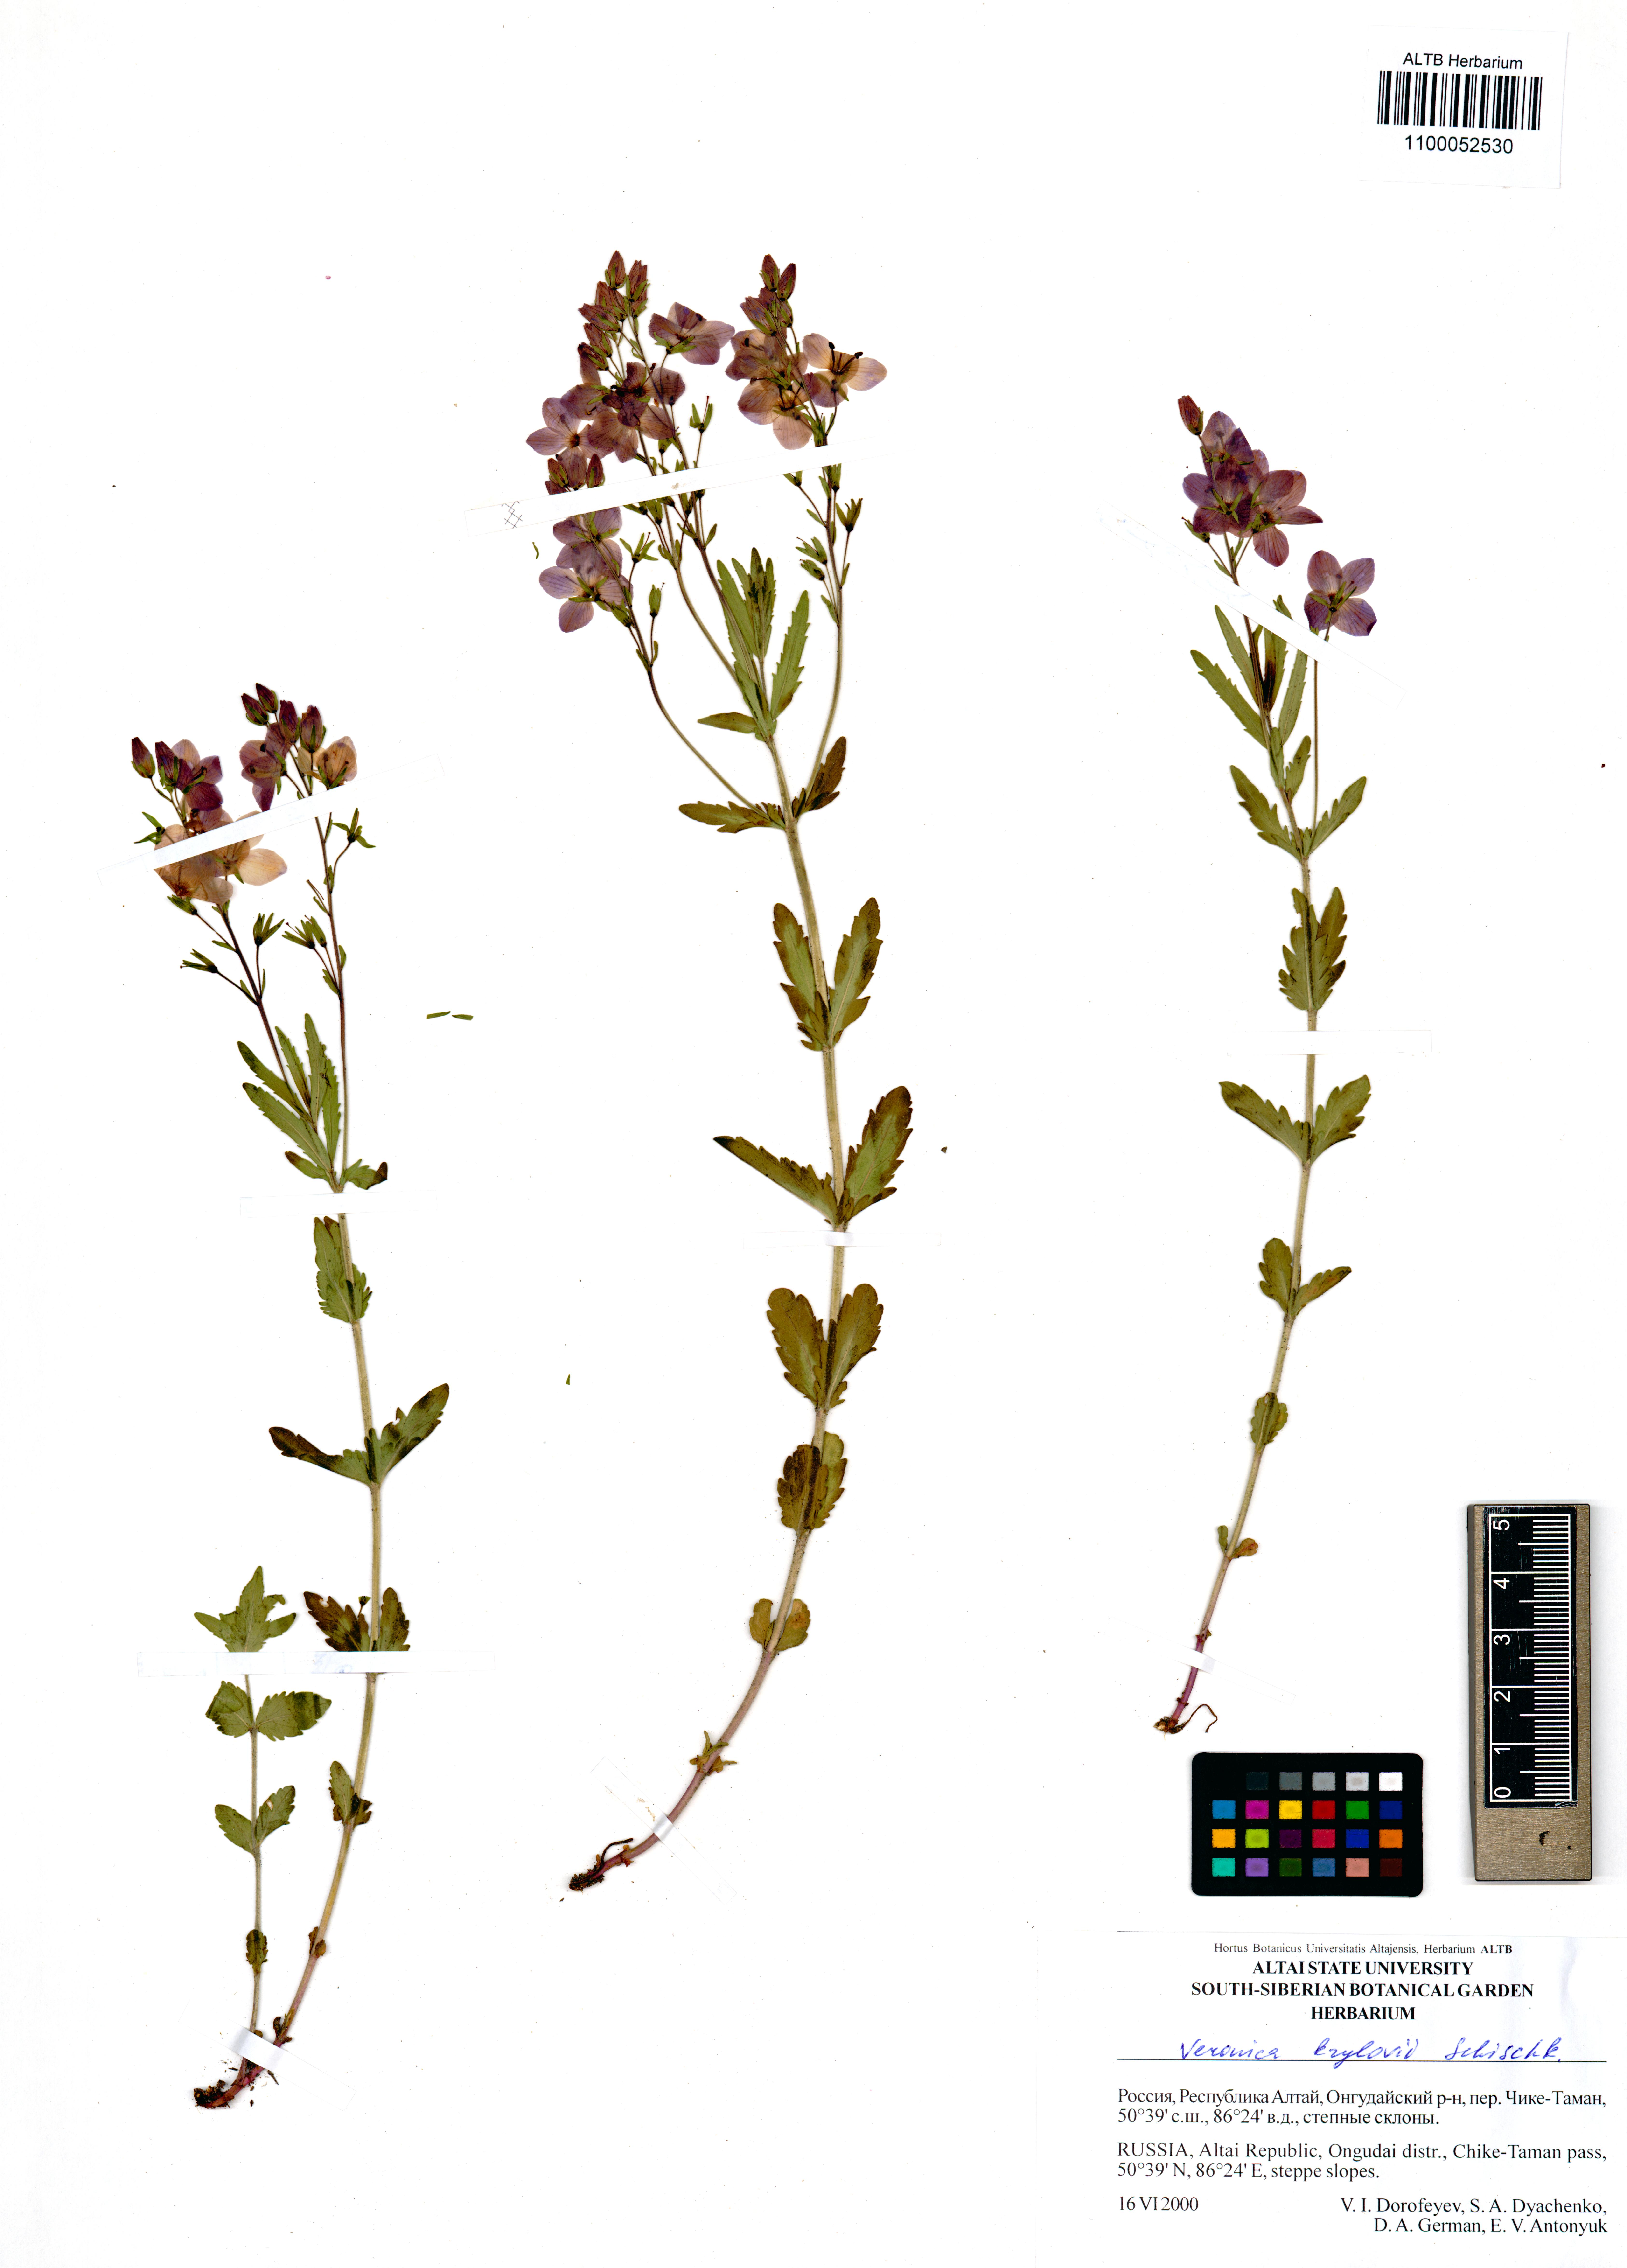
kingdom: Plantae
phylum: Tracheophyta
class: Magnoliopsida
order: Lamiales
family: Plantaginaceae
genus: Veronica
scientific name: Veronica krylovii
